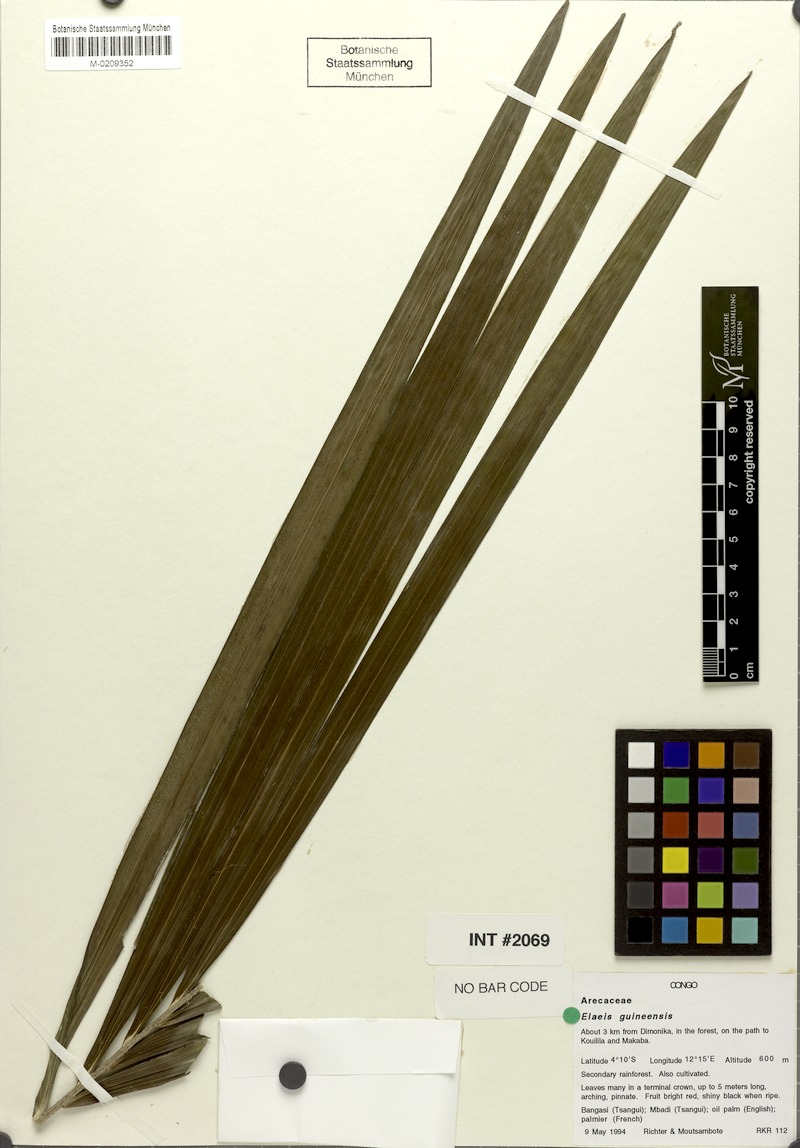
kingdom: Plantae
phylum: Tracheophyta
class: Liliopsida
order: Arecales
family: Arecaceae
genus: Elaeis
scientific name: Elaeis guineensis
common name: Oil palm
